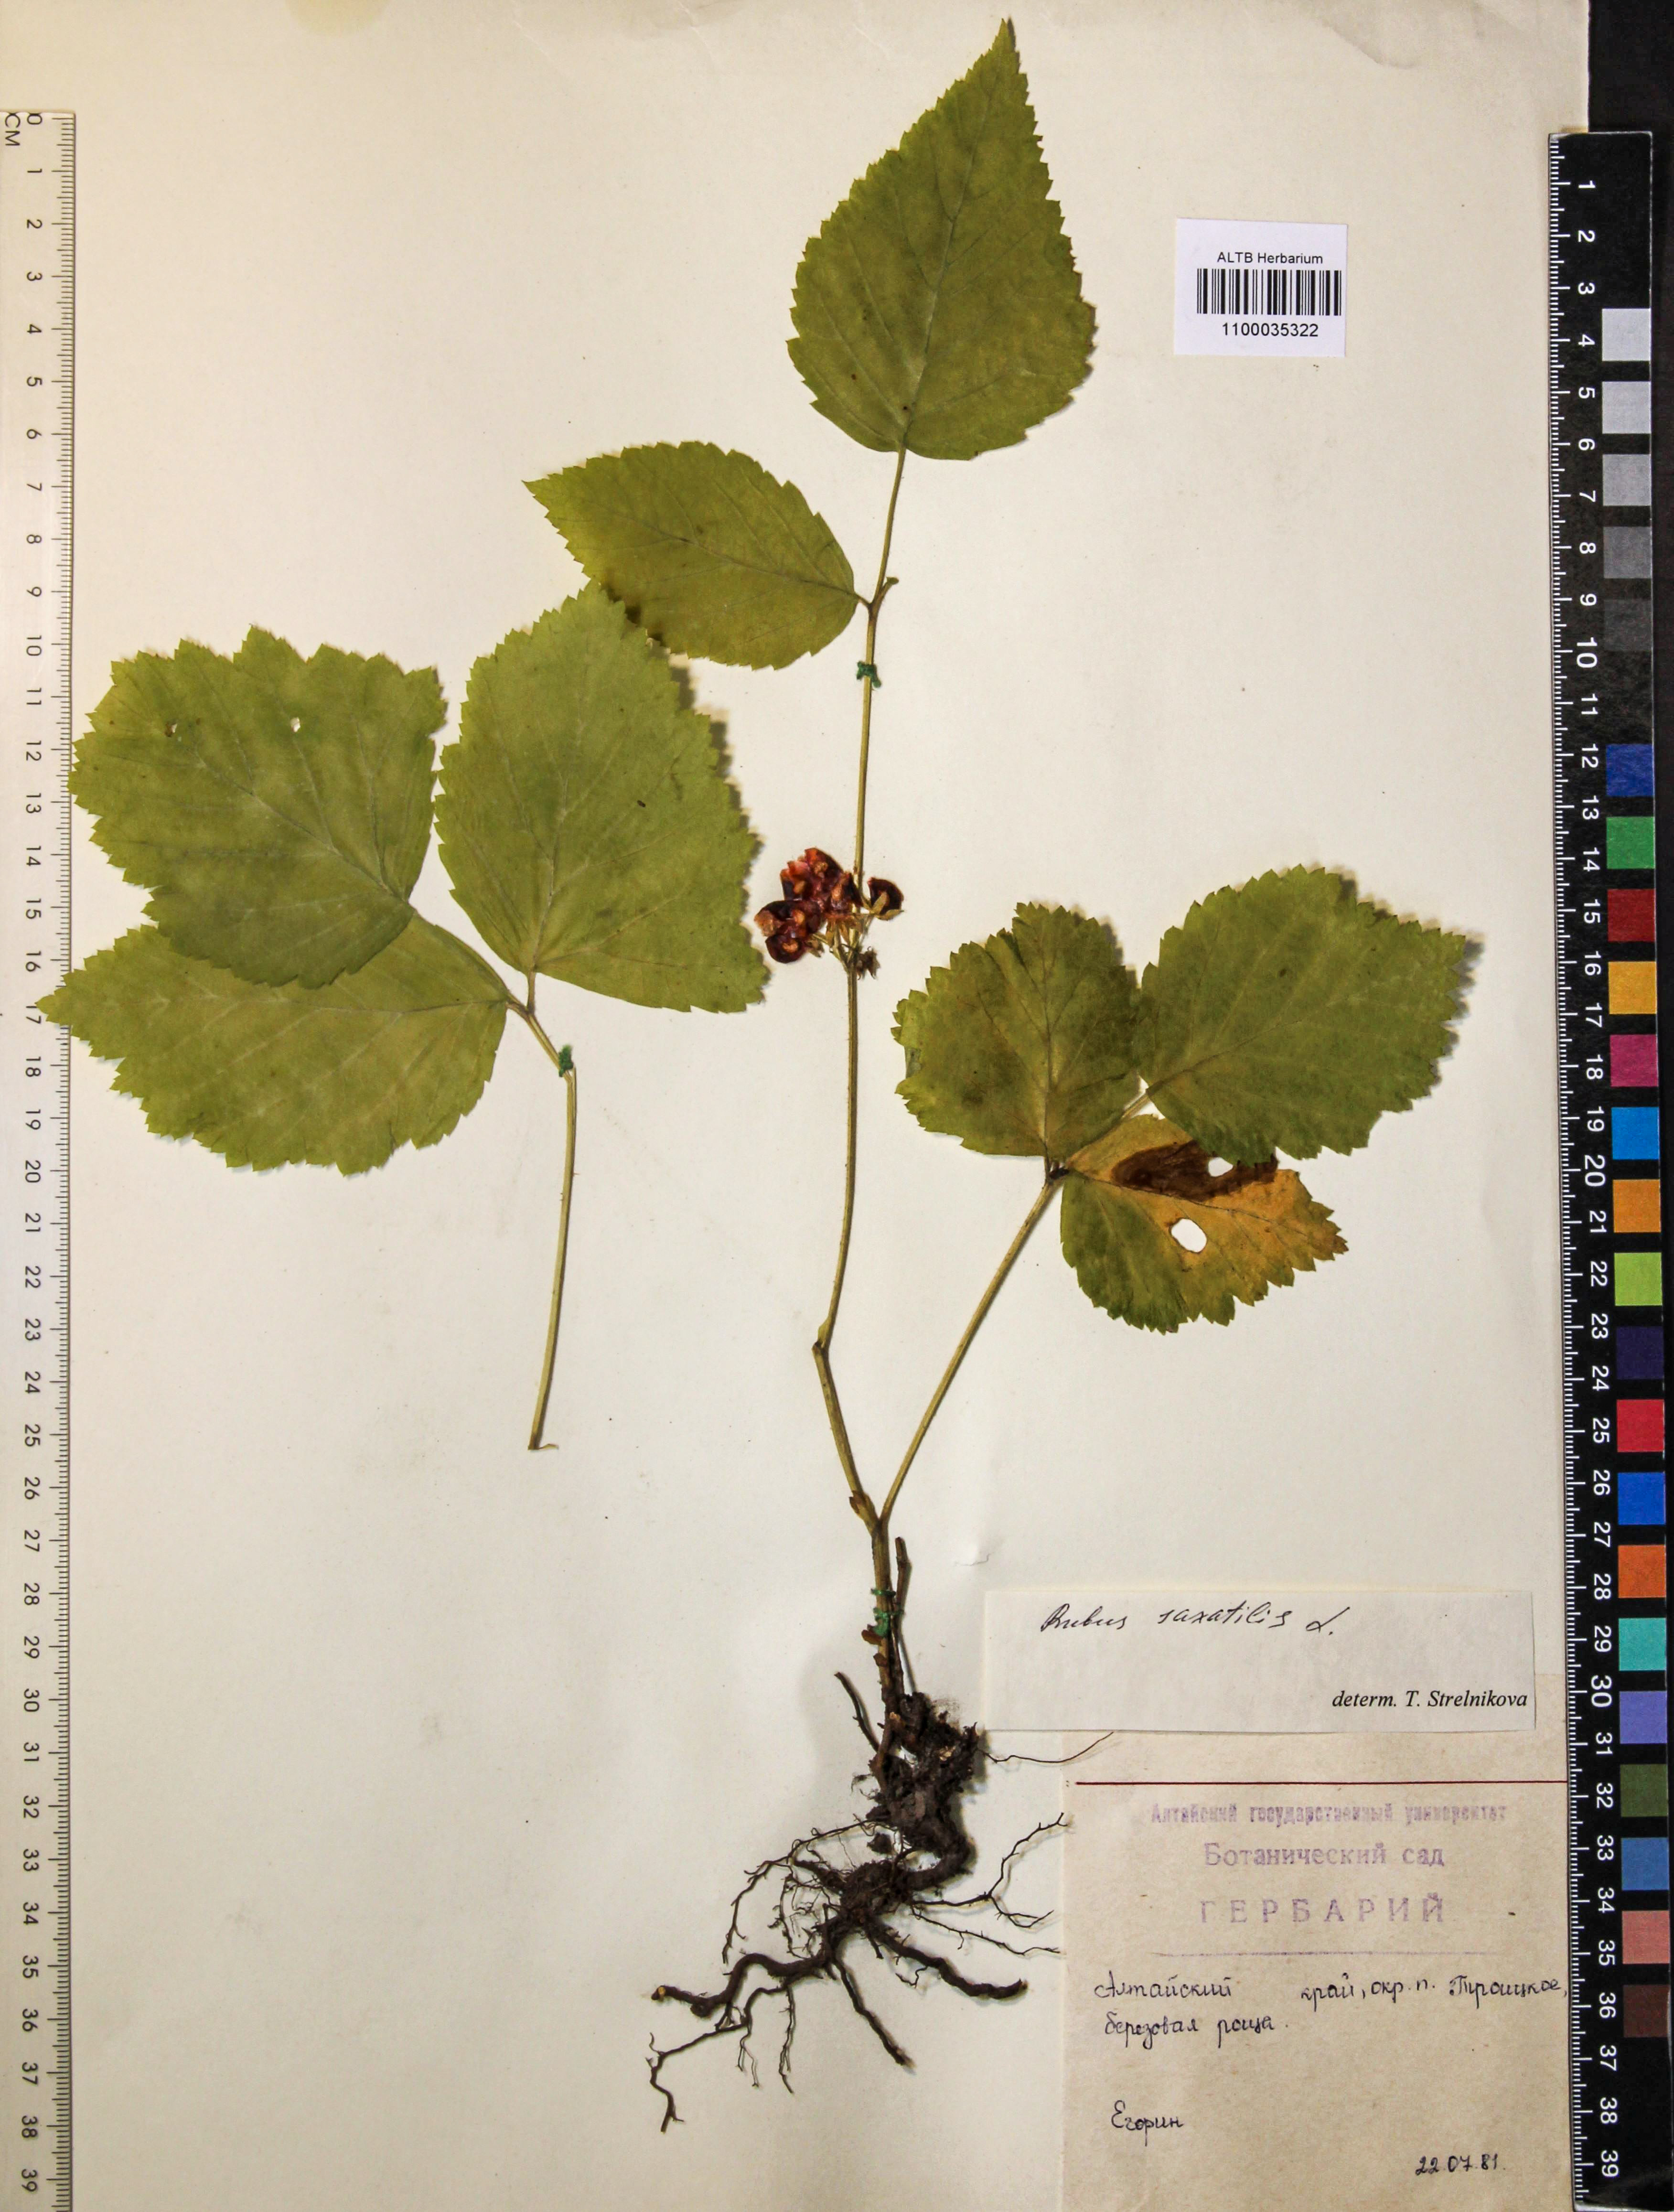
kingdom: Plantae
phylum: Tracheophyta
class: Magnoliopsida
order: Rosales
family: Rosaceae
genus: Rubus
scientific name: Rubus saxatilis
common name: Stone bramble
